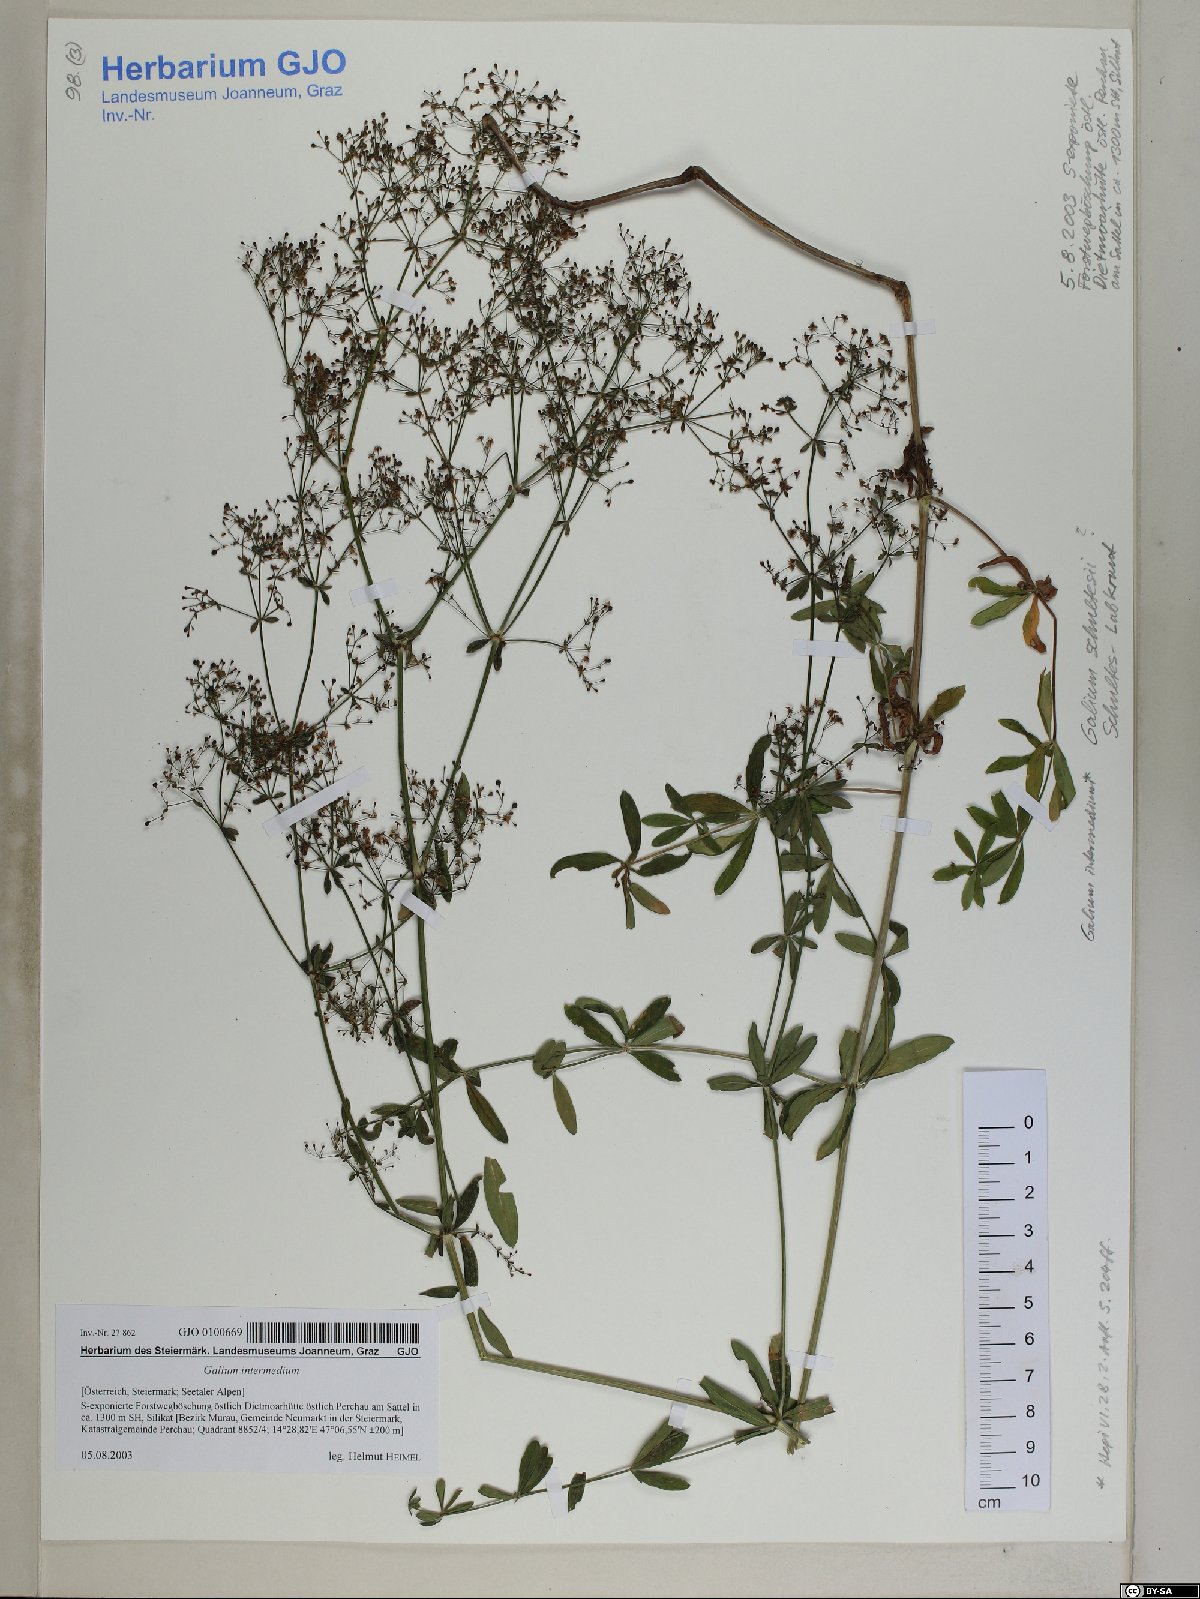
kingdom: Plantae
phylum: Tracheophyta
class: Magnoliopsida
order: Gentianales
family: Rubiaceae
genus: Galium
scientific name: Galium intermedium
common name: Bedstraw
